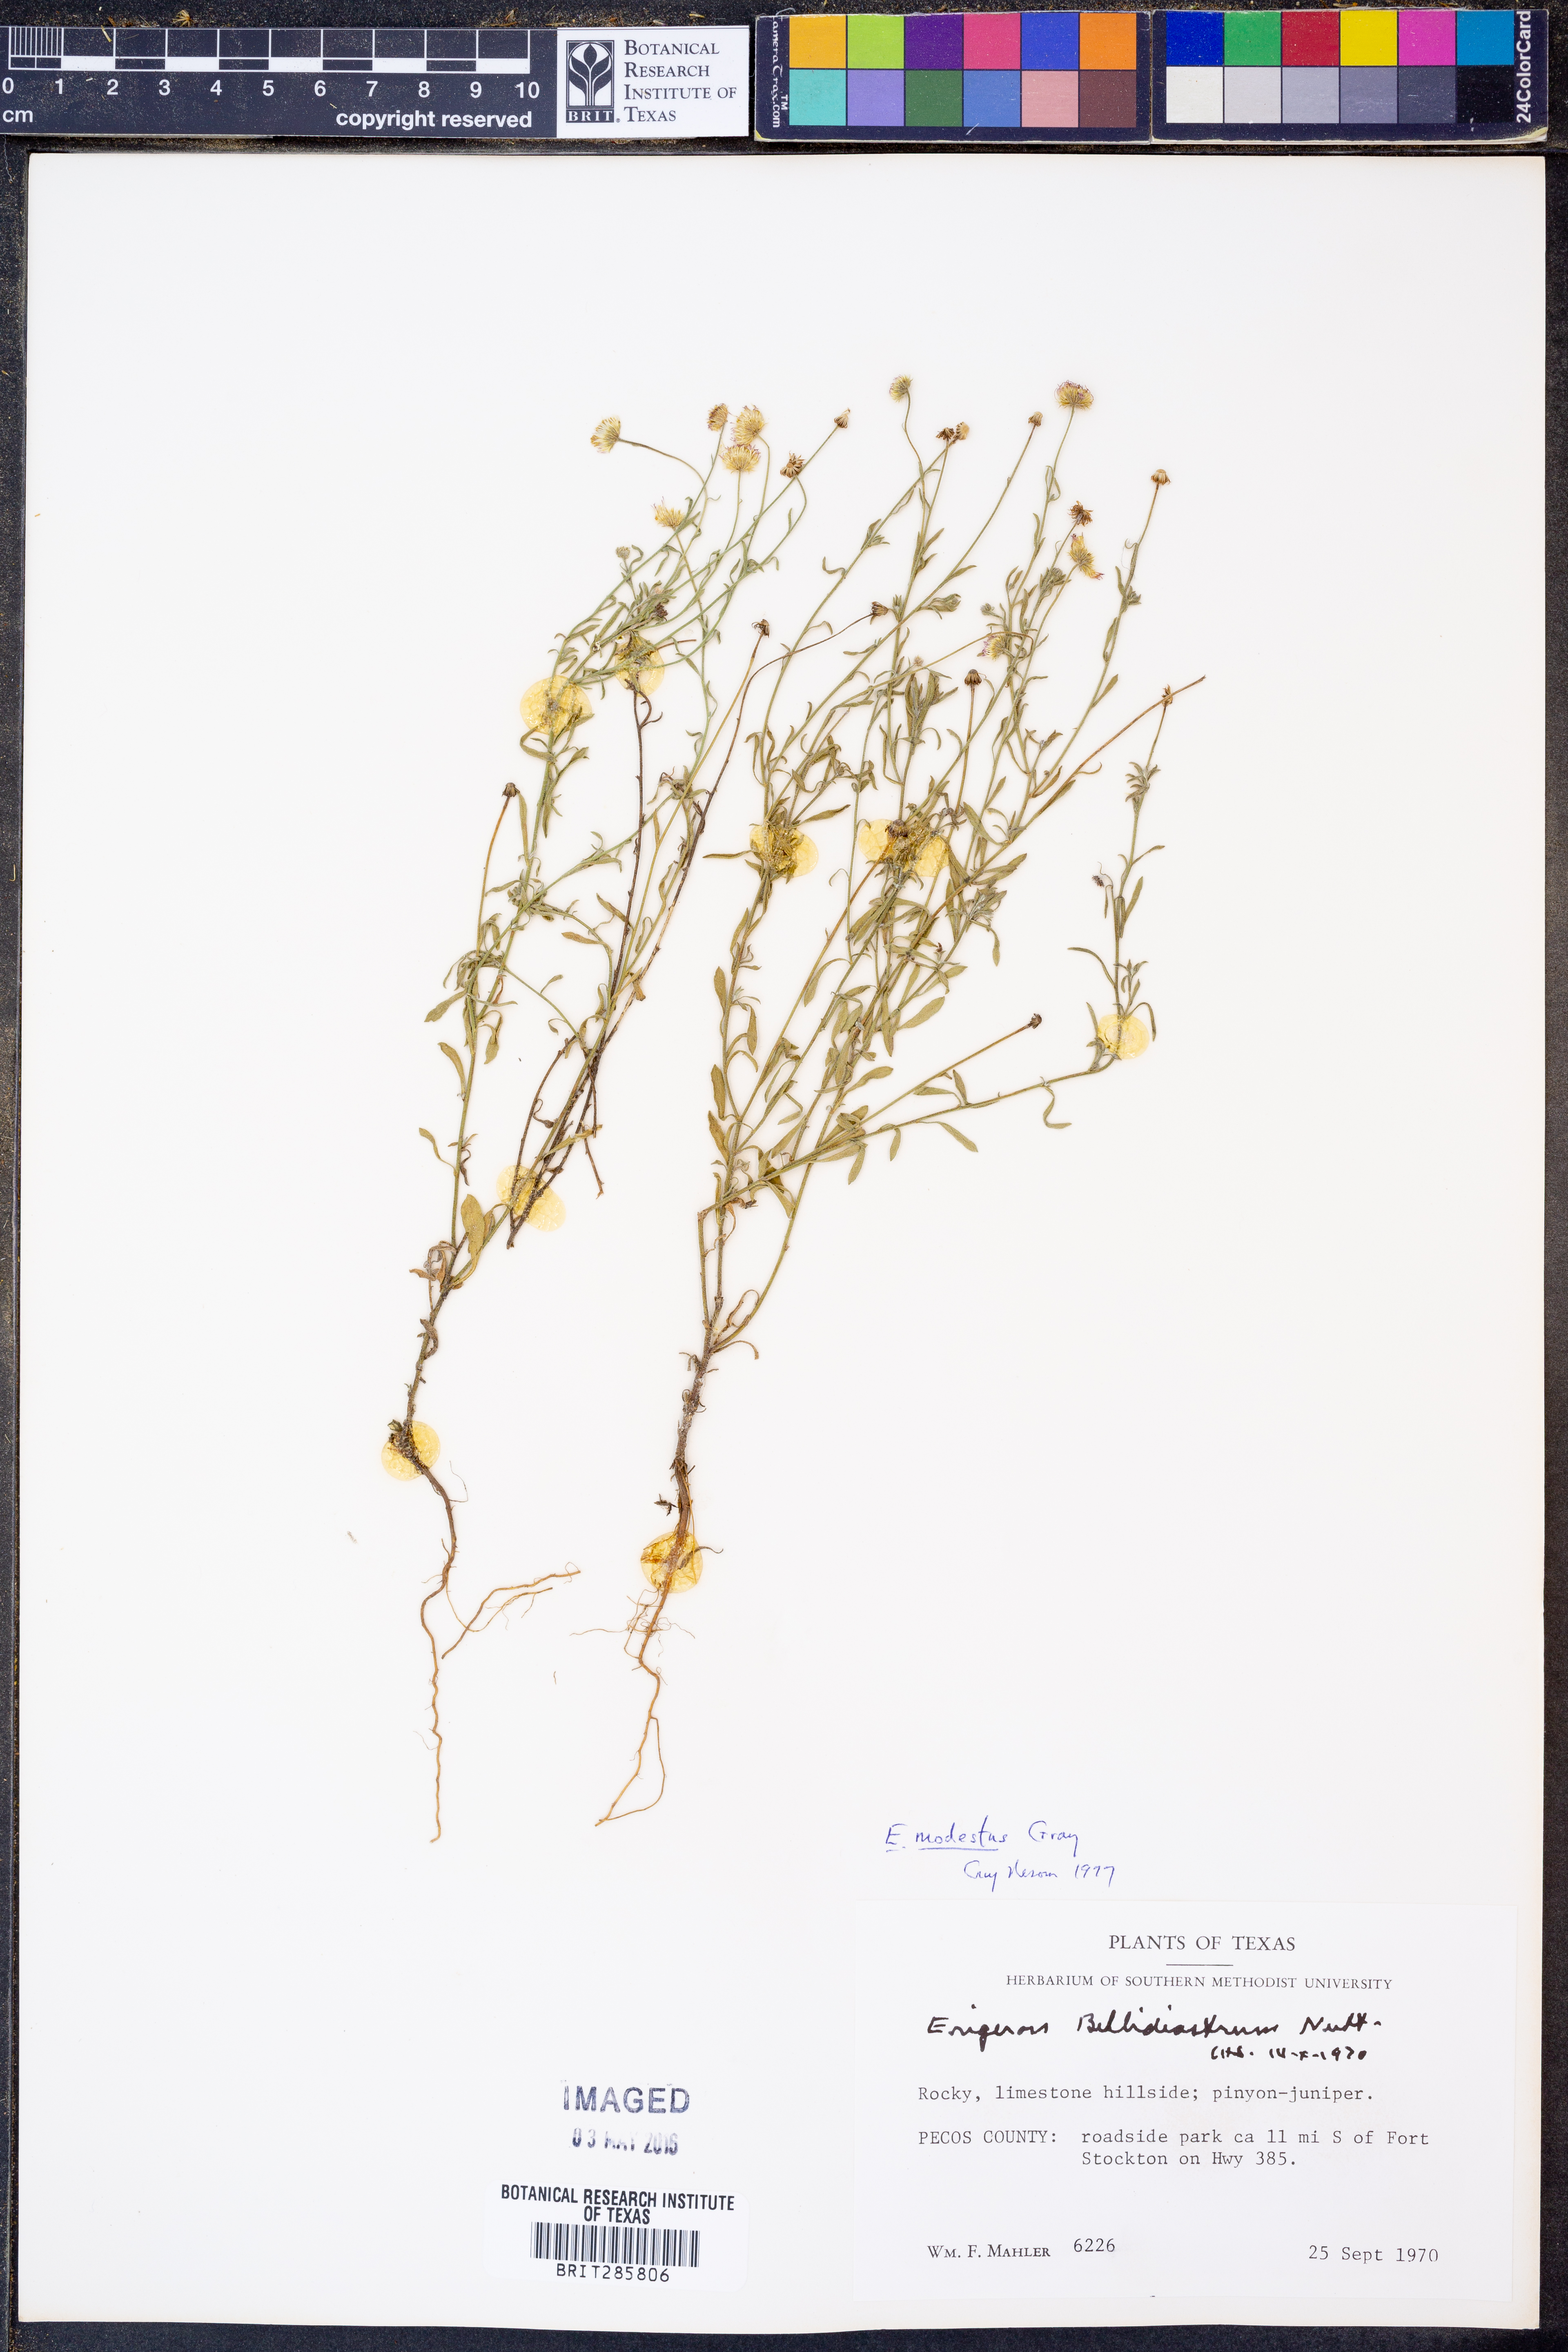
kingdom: Plantae
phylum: Tracheophyta
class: Magnoliopsida
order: Asterales
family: Asteraceae
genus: Erigeron
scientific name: Erigeron modestus
